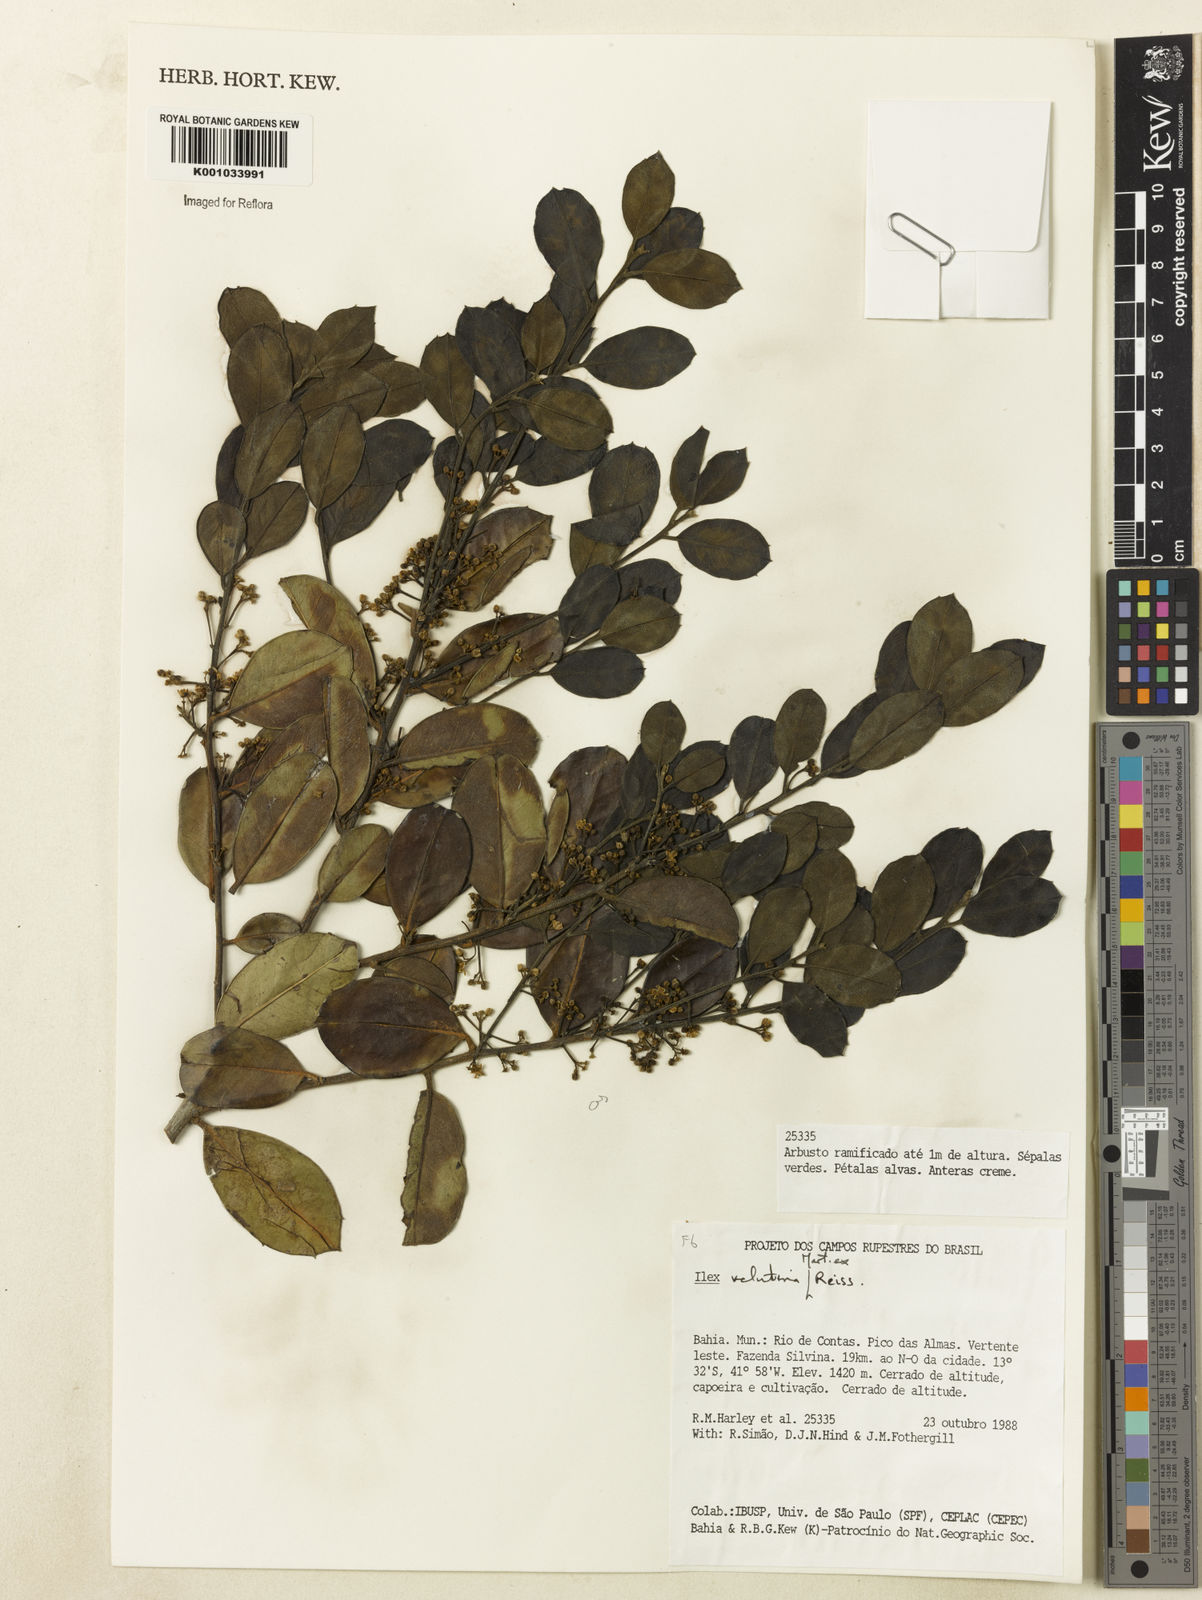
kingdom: Plantae
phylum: Tracheophyta
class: Magnoliopsida
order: Aquifoliales
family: Aquifoliaceae
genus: Ilex
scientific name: Ilex velutina
